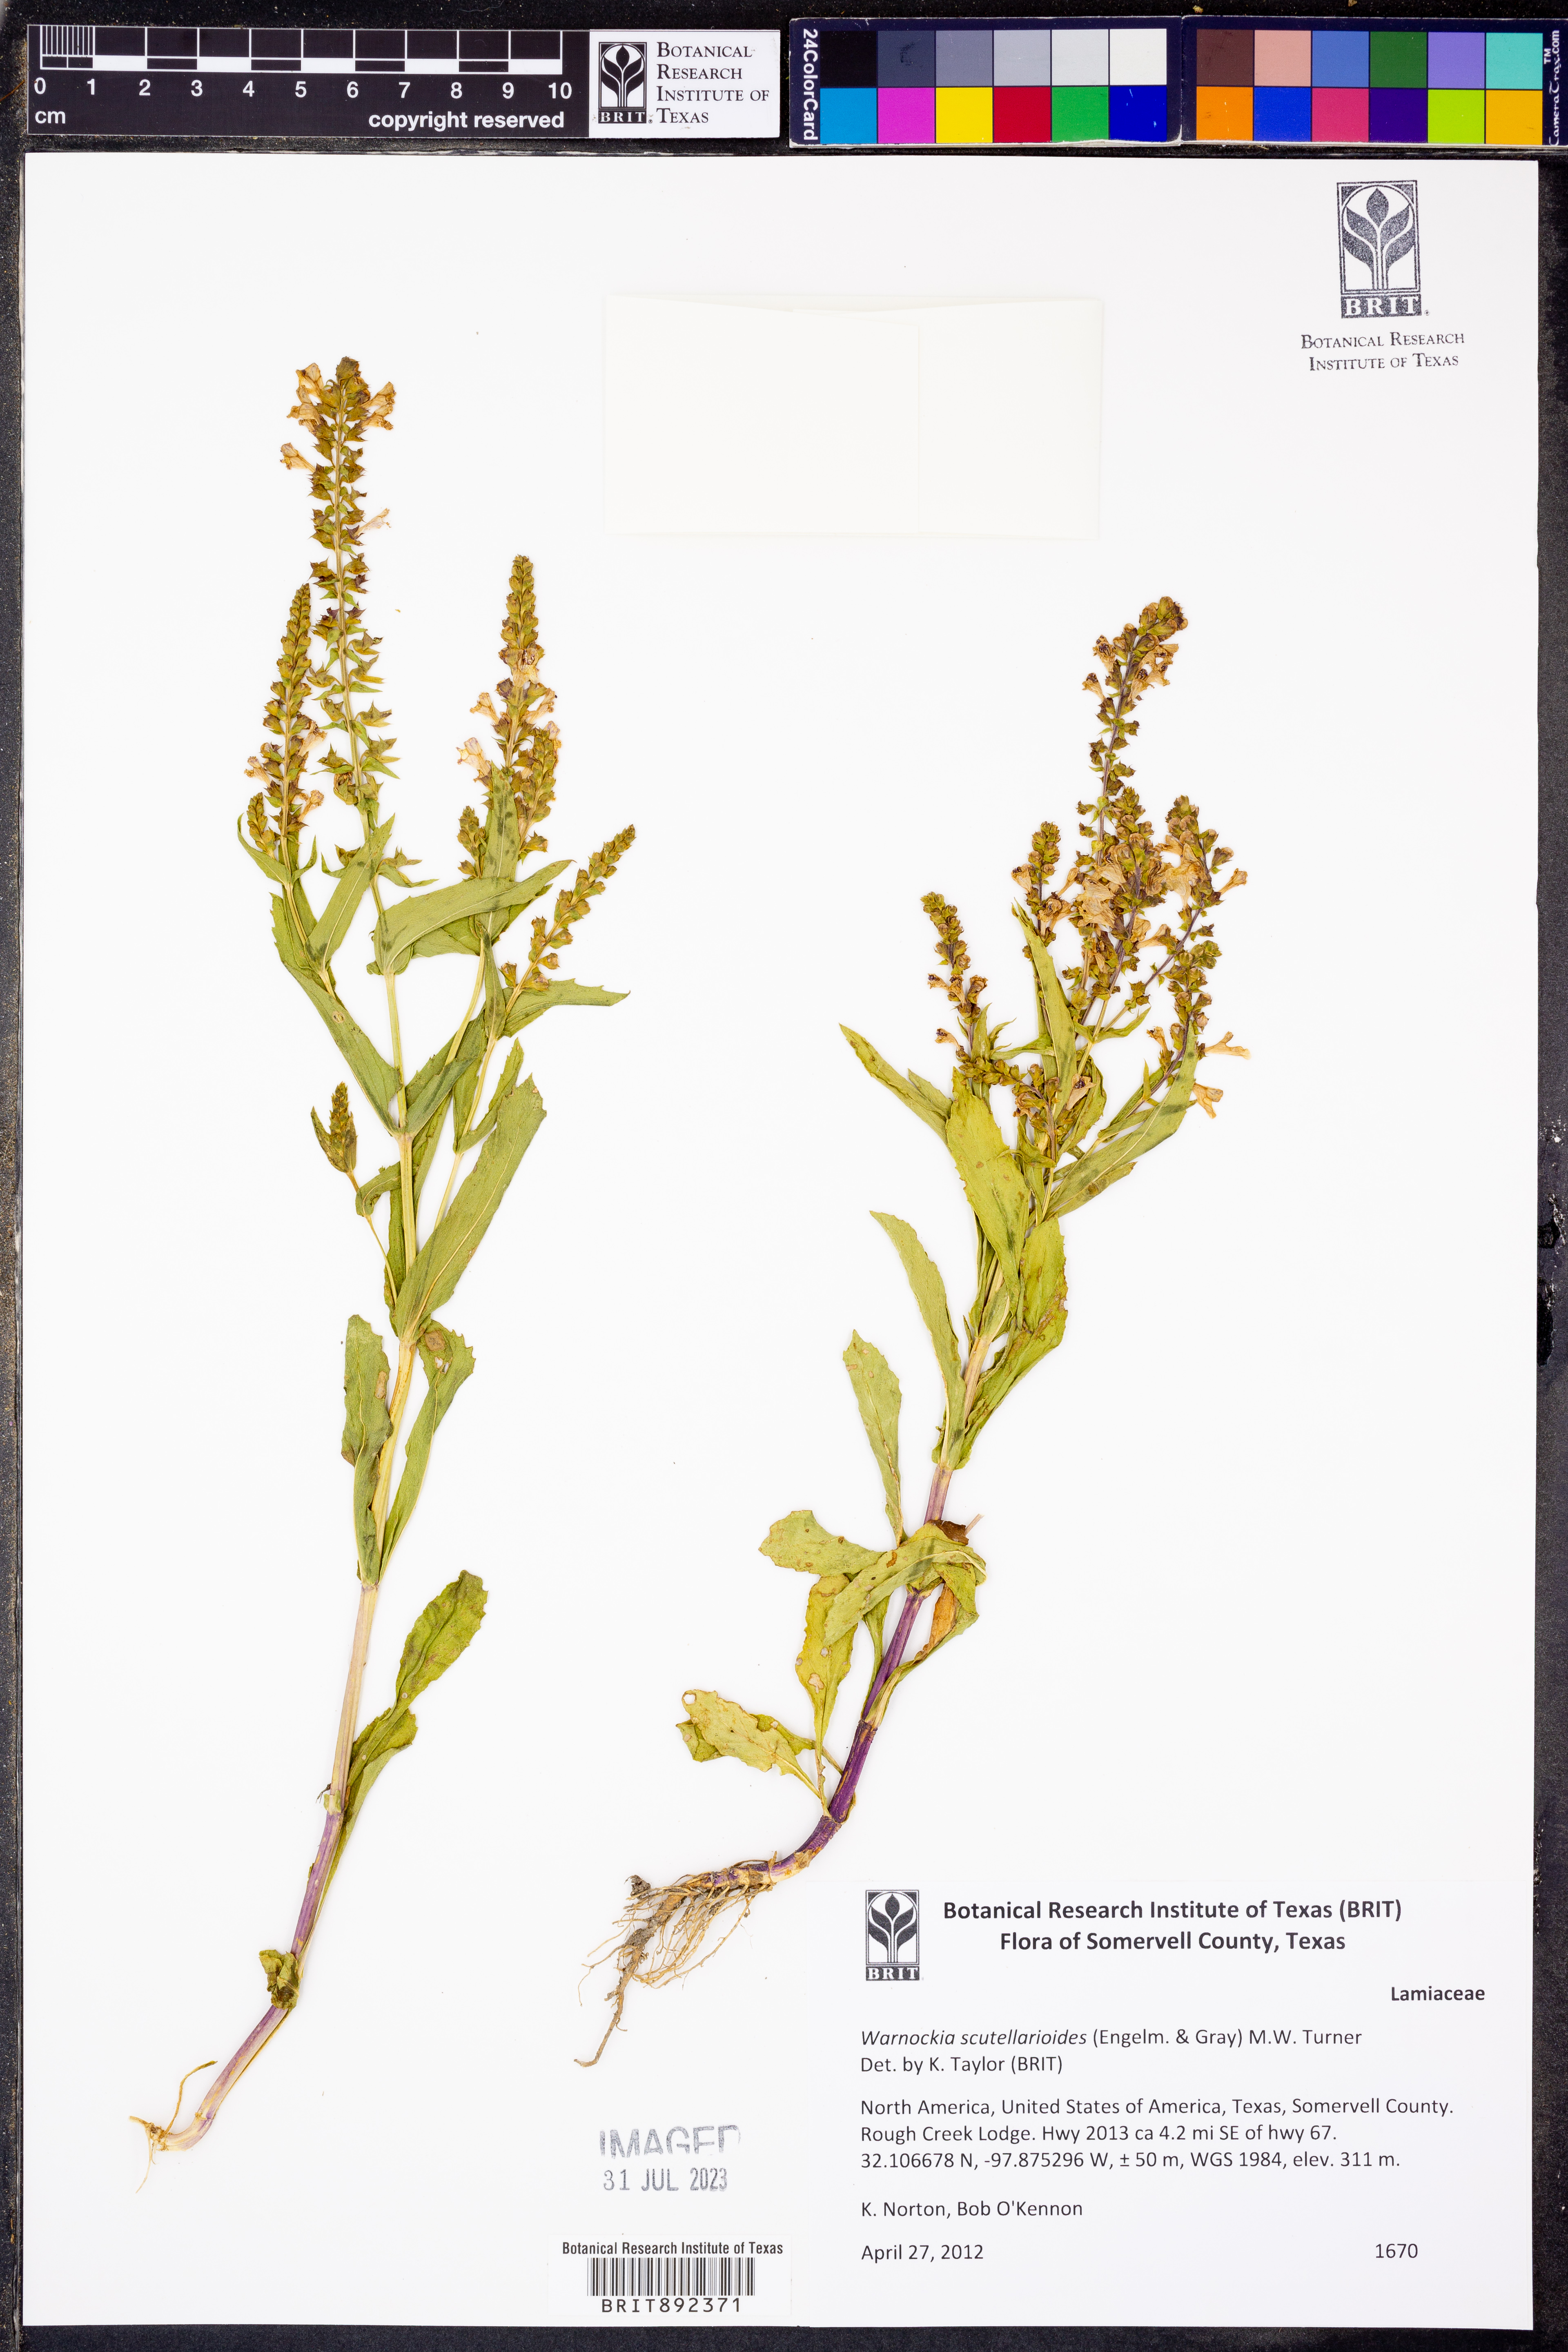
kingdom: Plantae
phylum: Tracheophyta
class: Magnoliopsida
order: Lamiales
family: Lamiaceae
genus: Warnockia
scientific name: Warnockia scutellarioides
